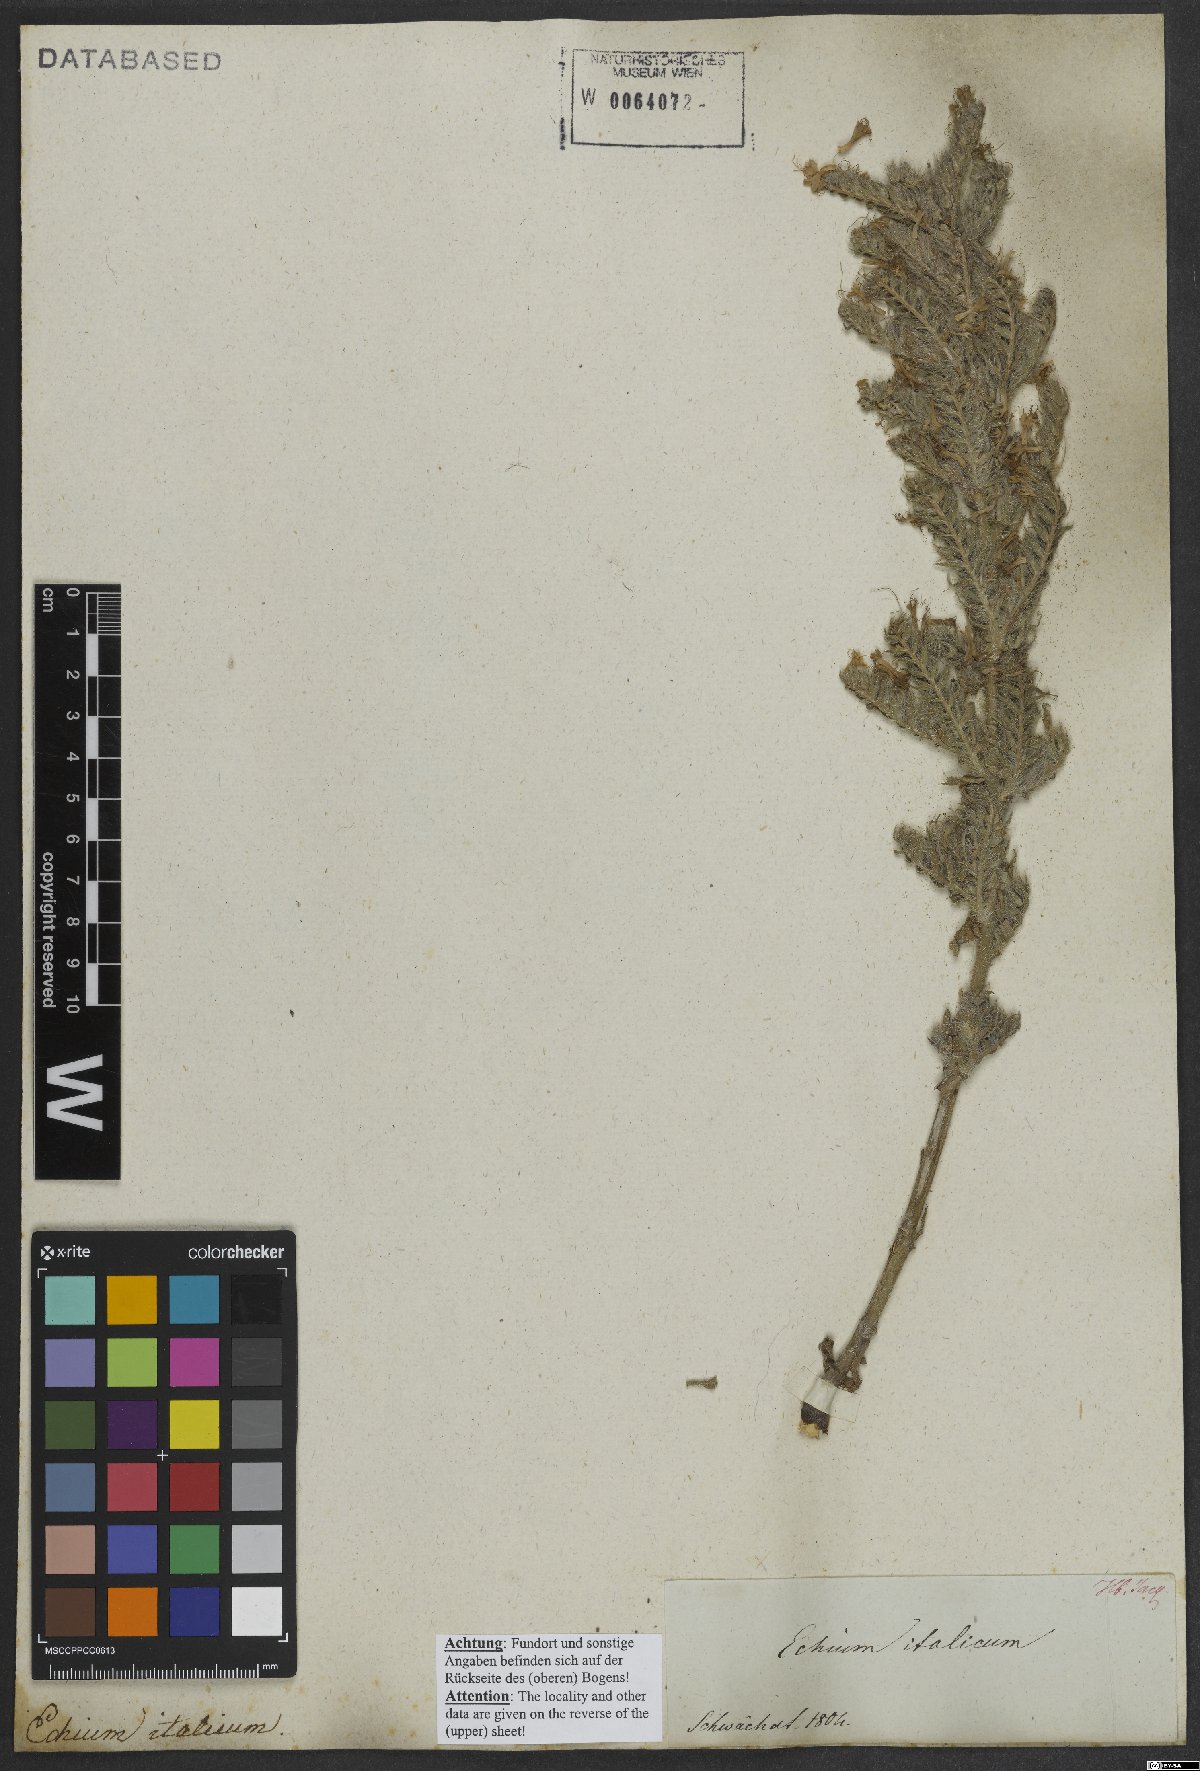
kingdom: Plantae
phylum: Tracheophyta
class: Magnoliopsida
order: Boraginales
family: Boraginaceae
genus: Echium
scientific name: Echium italicum
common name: Italian viper's bugloss
